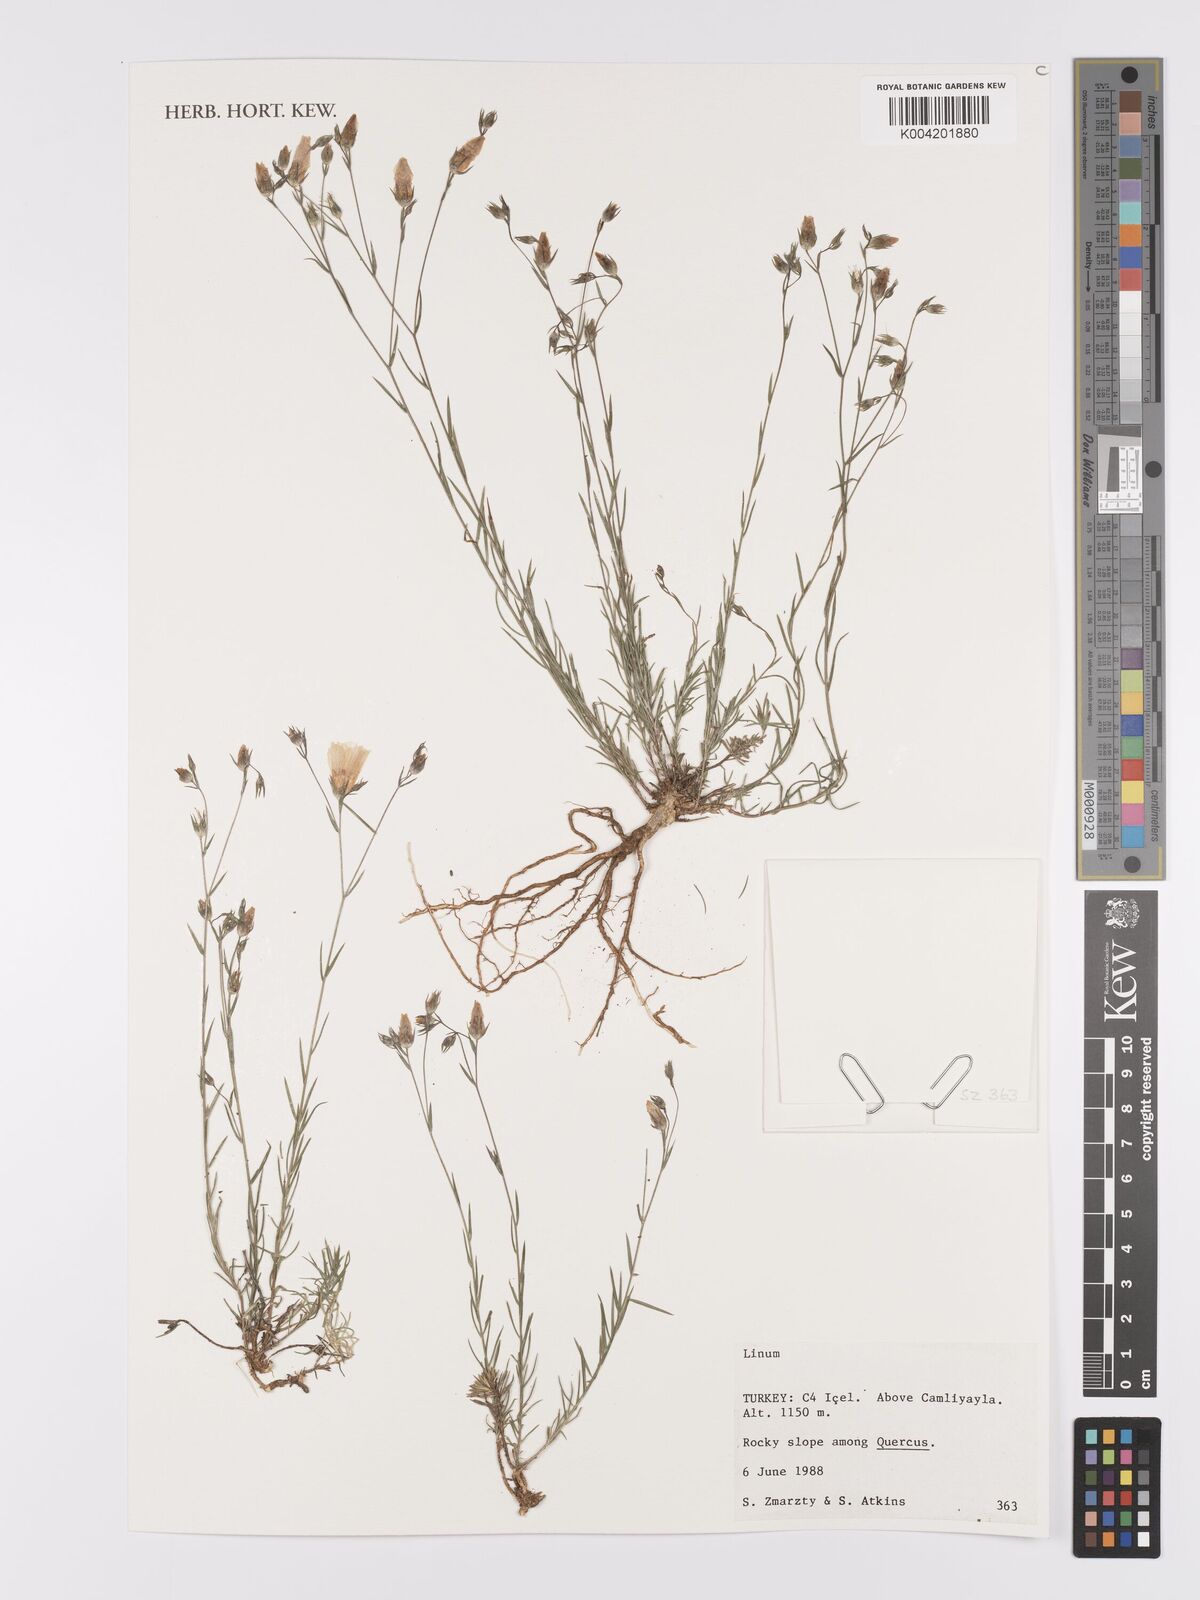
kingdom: Plantae
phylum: Tracheophyta
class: Magnoliopsida
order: Malpighiales
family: Linaceae
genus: Linum
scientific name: Linum
